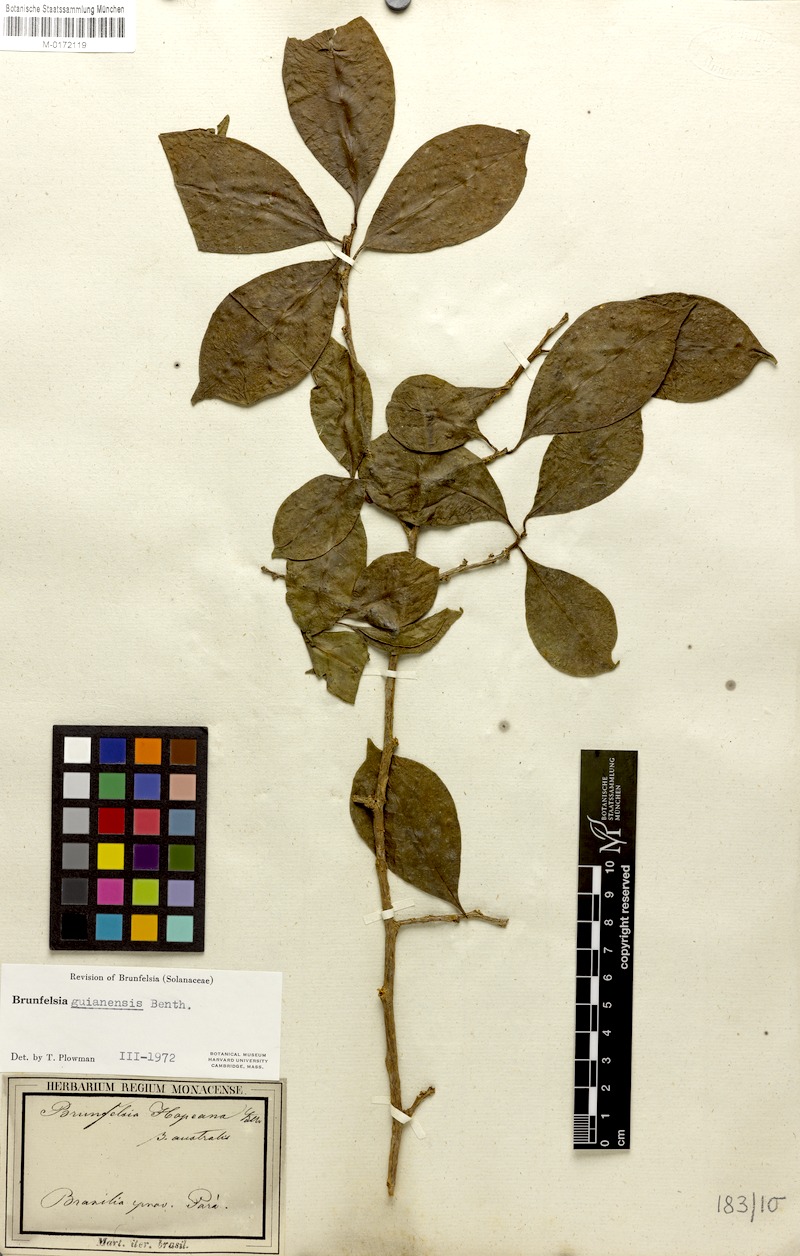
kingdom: Plantae
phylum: Tracheophyta
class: Magnoliopsida
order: Solanales
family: Solanaceae
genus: Brunfelsia
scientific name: Brunfelsia guianensis
